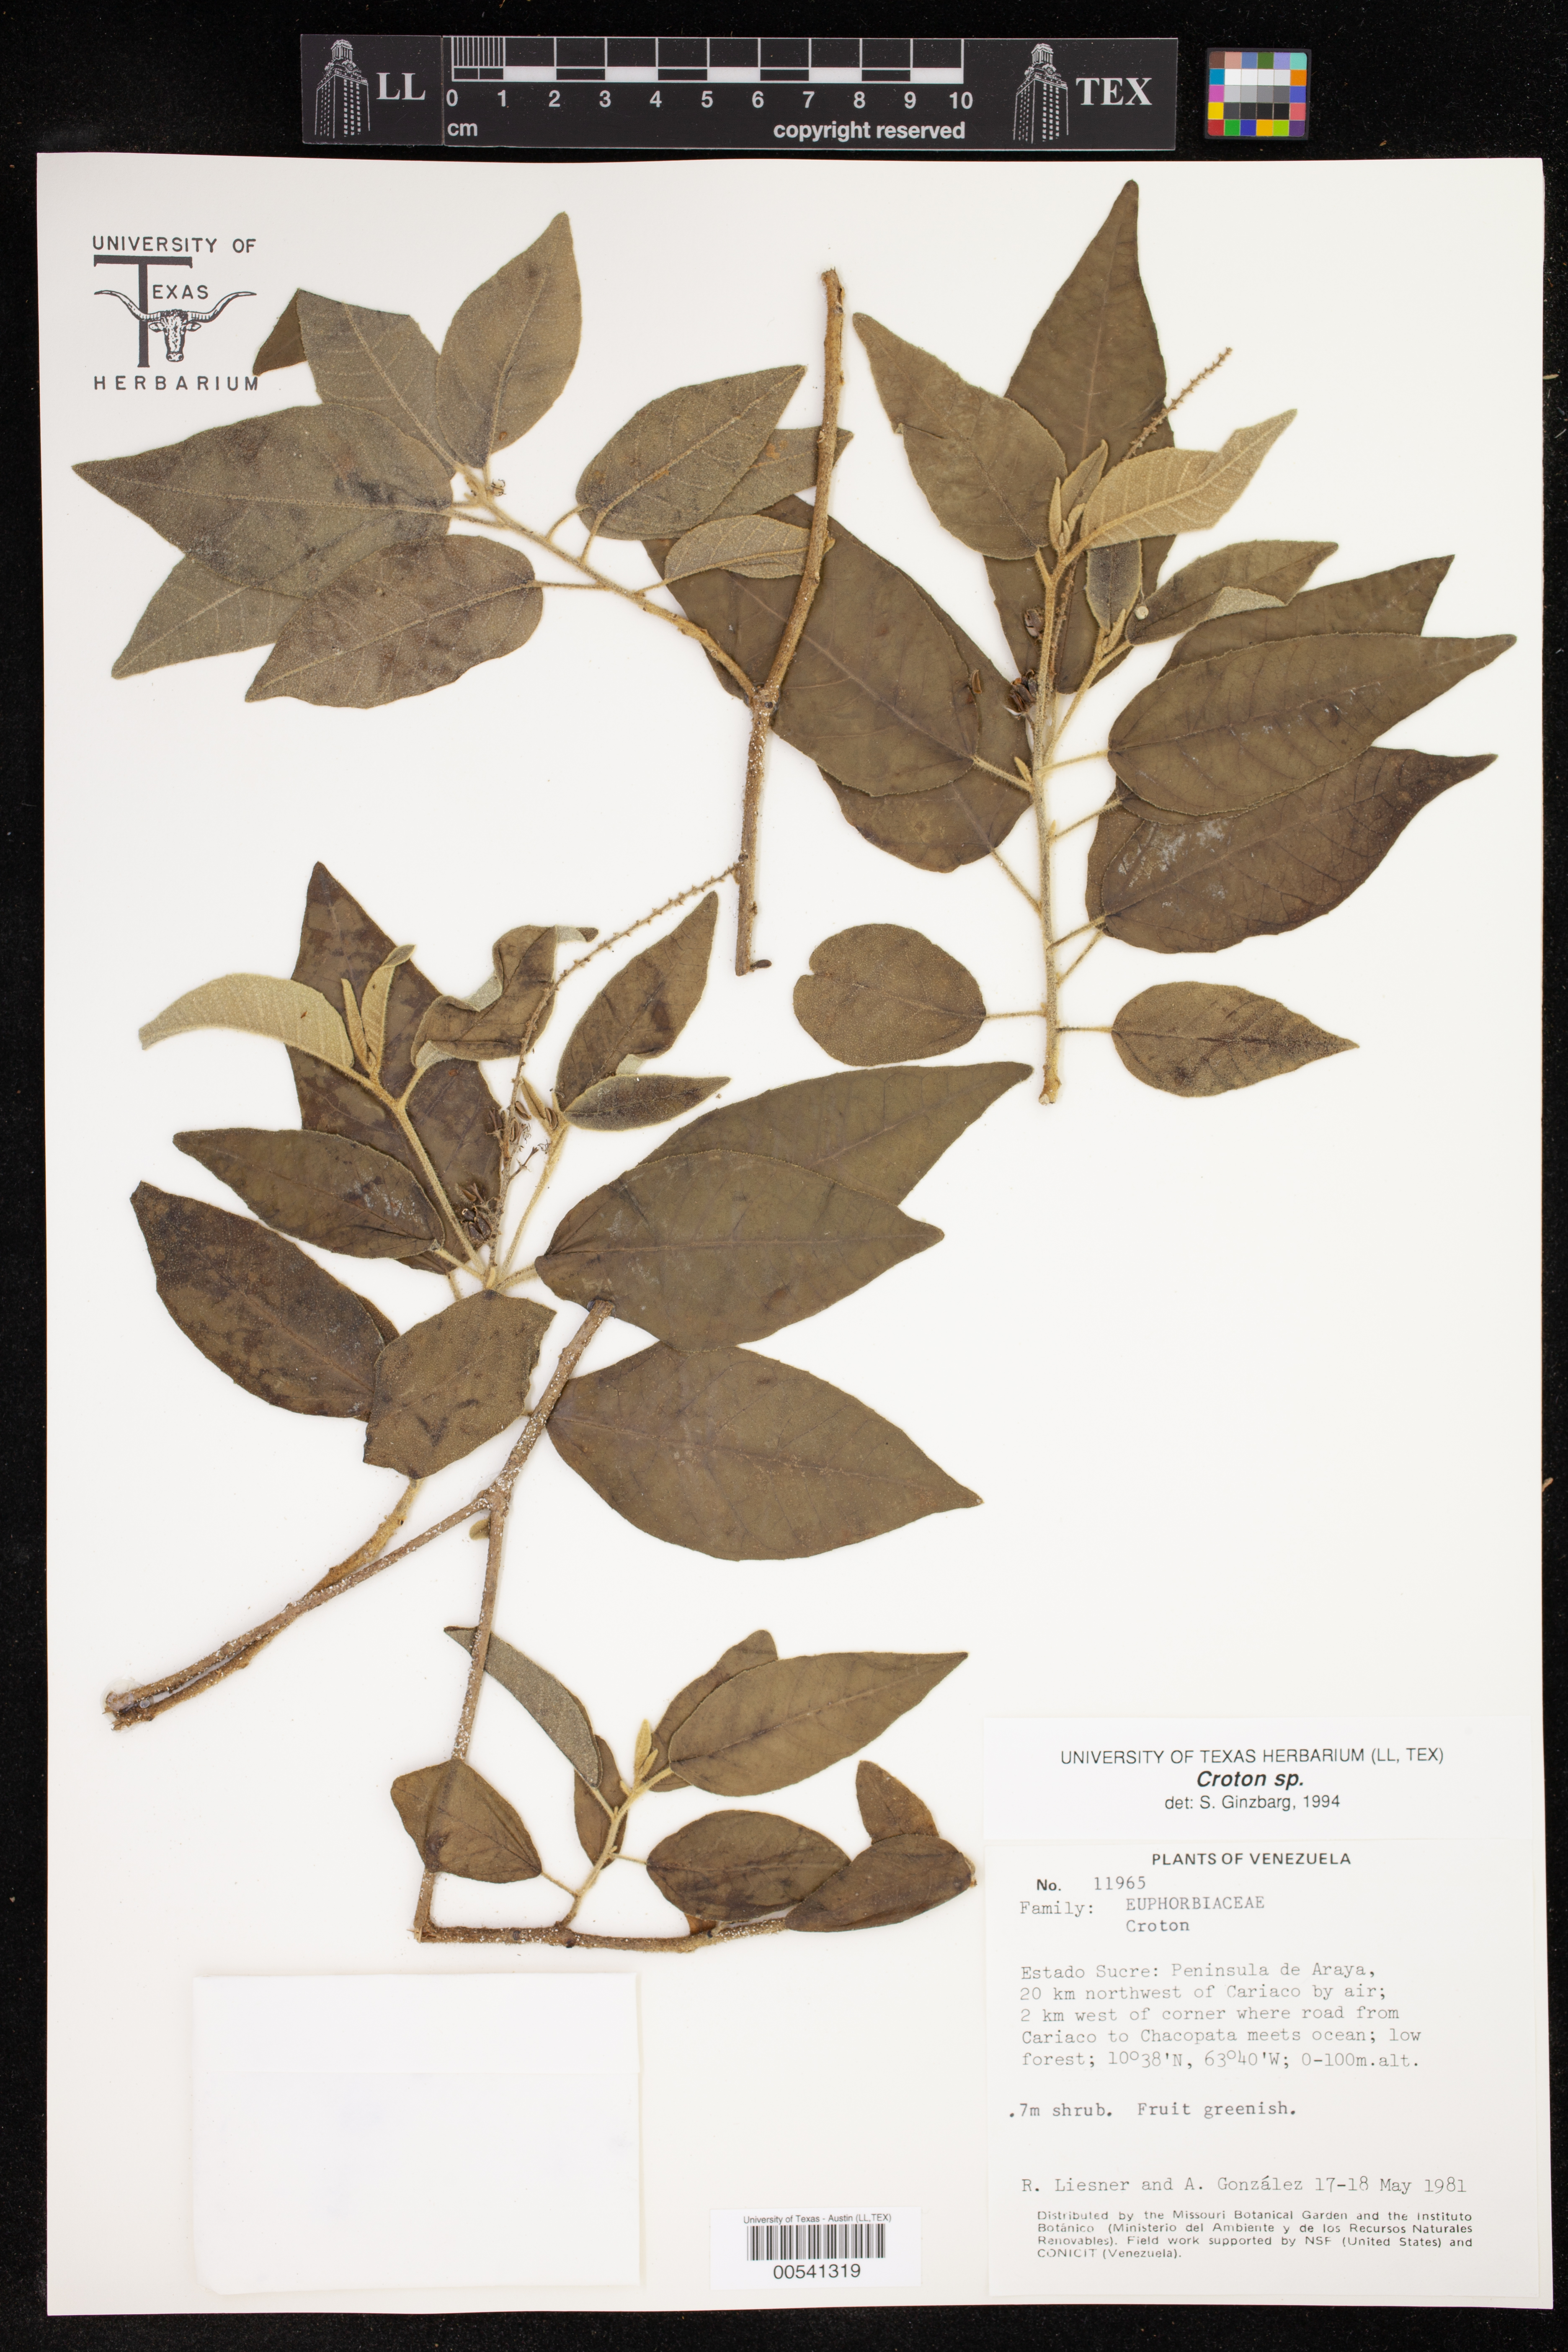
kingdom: Plantae
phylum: Tracheophyta
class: Magnoliopsida
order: Malpighiales
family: Euphorbiaceae
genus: Croton
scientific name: Croton
